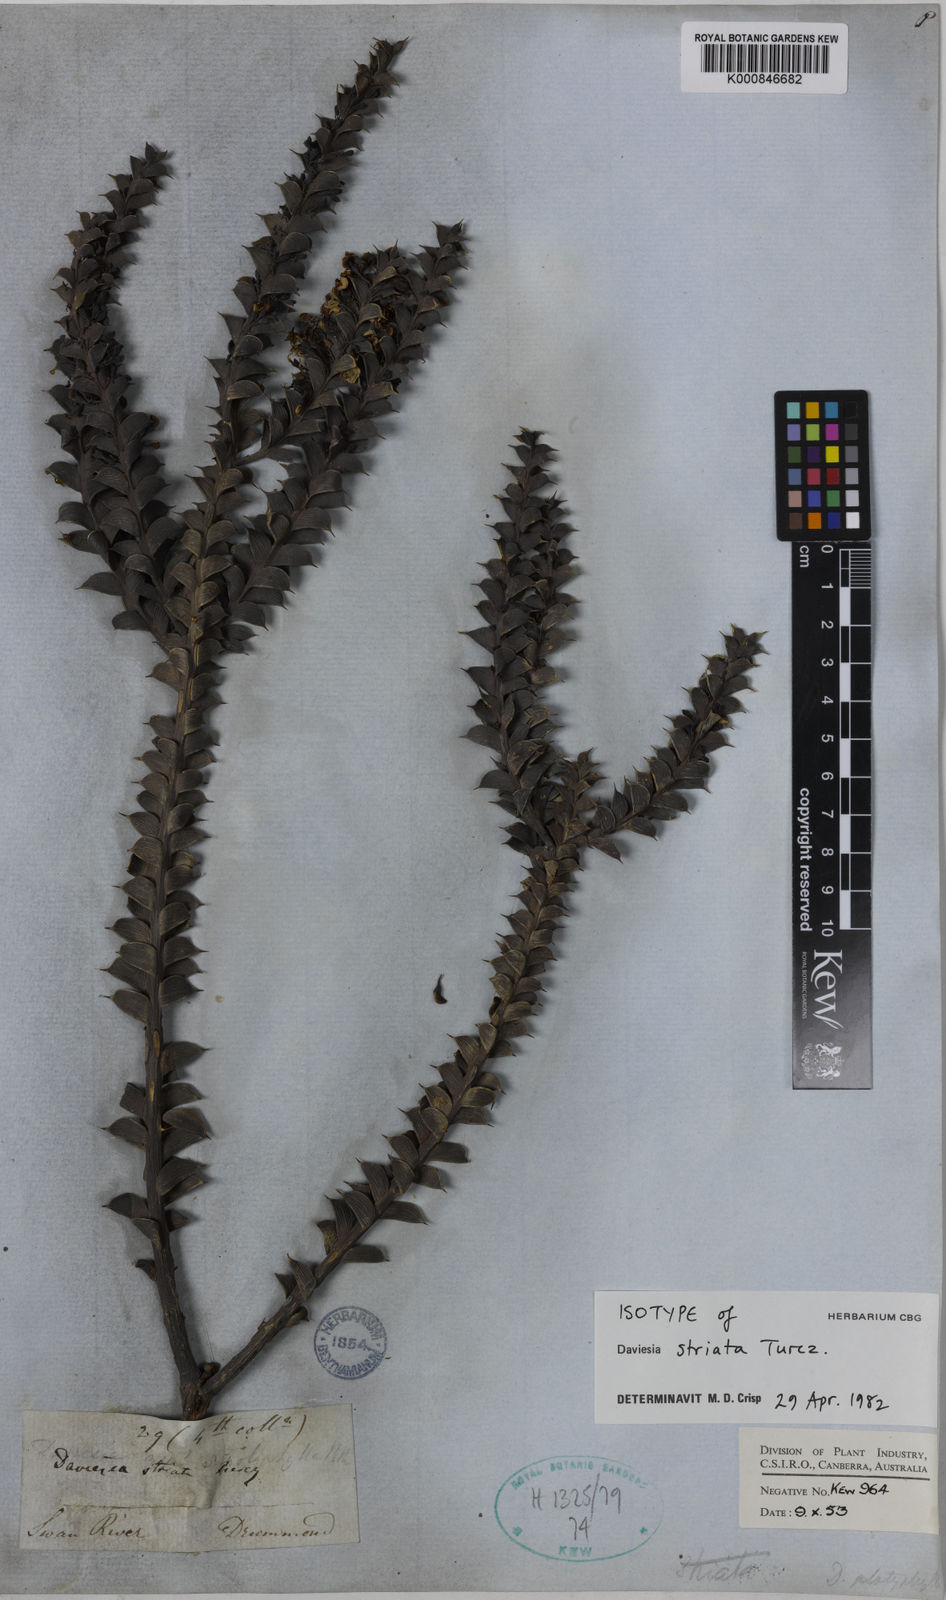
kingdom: Plantae
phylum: Tracheophyta
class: Magnoliopsida
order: Fabales
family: Fabaceae
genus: Daviesia
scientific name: Daviesia striata
